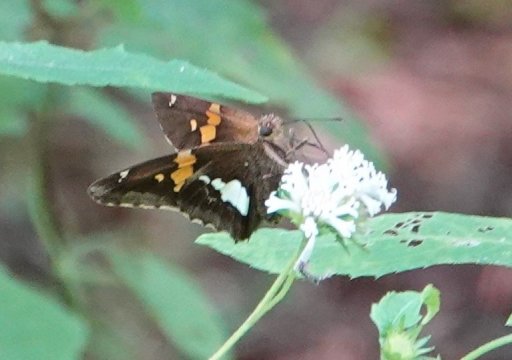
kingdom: Animalia
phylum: Arthropoda
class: Insecta
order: Lepidoptera
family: Hesperiidae
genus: Epargyreus
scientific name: Epargyreus clarus
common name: Silver-spotted Skipper
